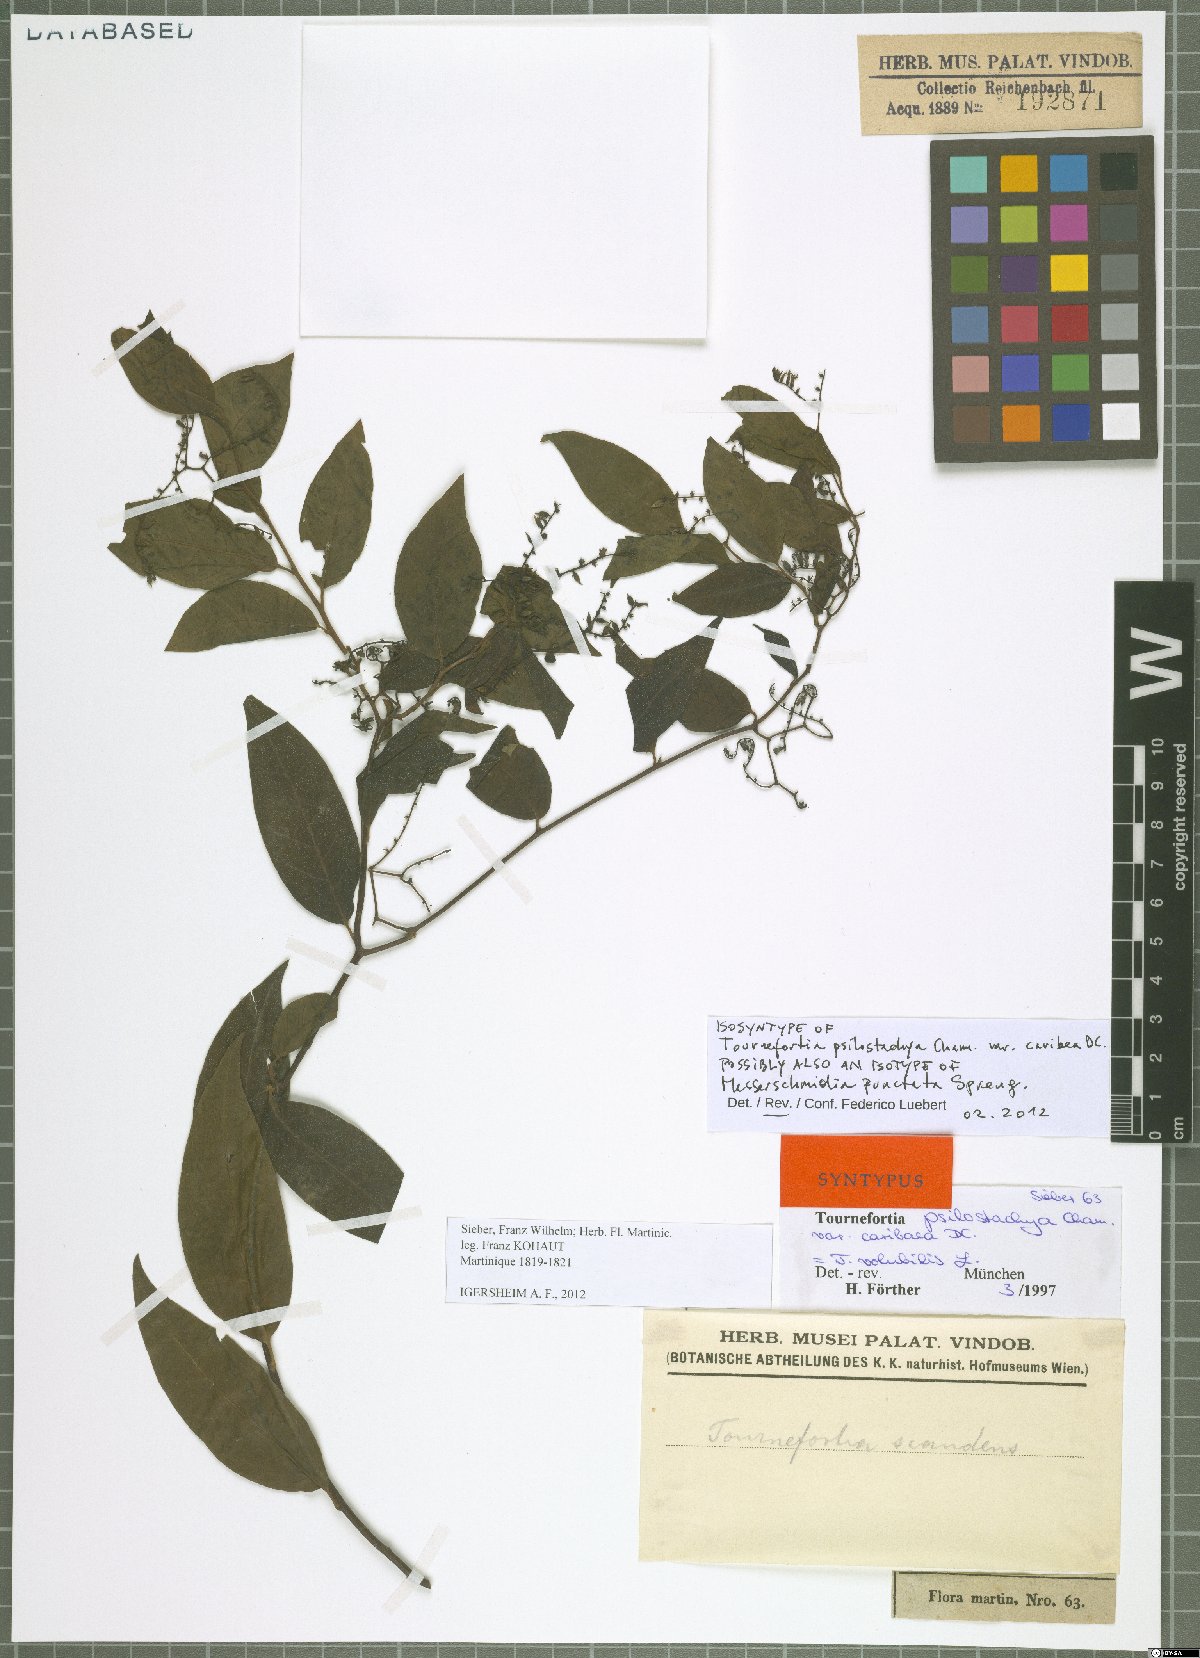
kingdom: Plantae
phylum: Tracheophyta
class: Magnoliopsida
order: Boraginales
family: Heliotropiaceae
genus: Myriopus
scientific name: Myriopus volubilis
